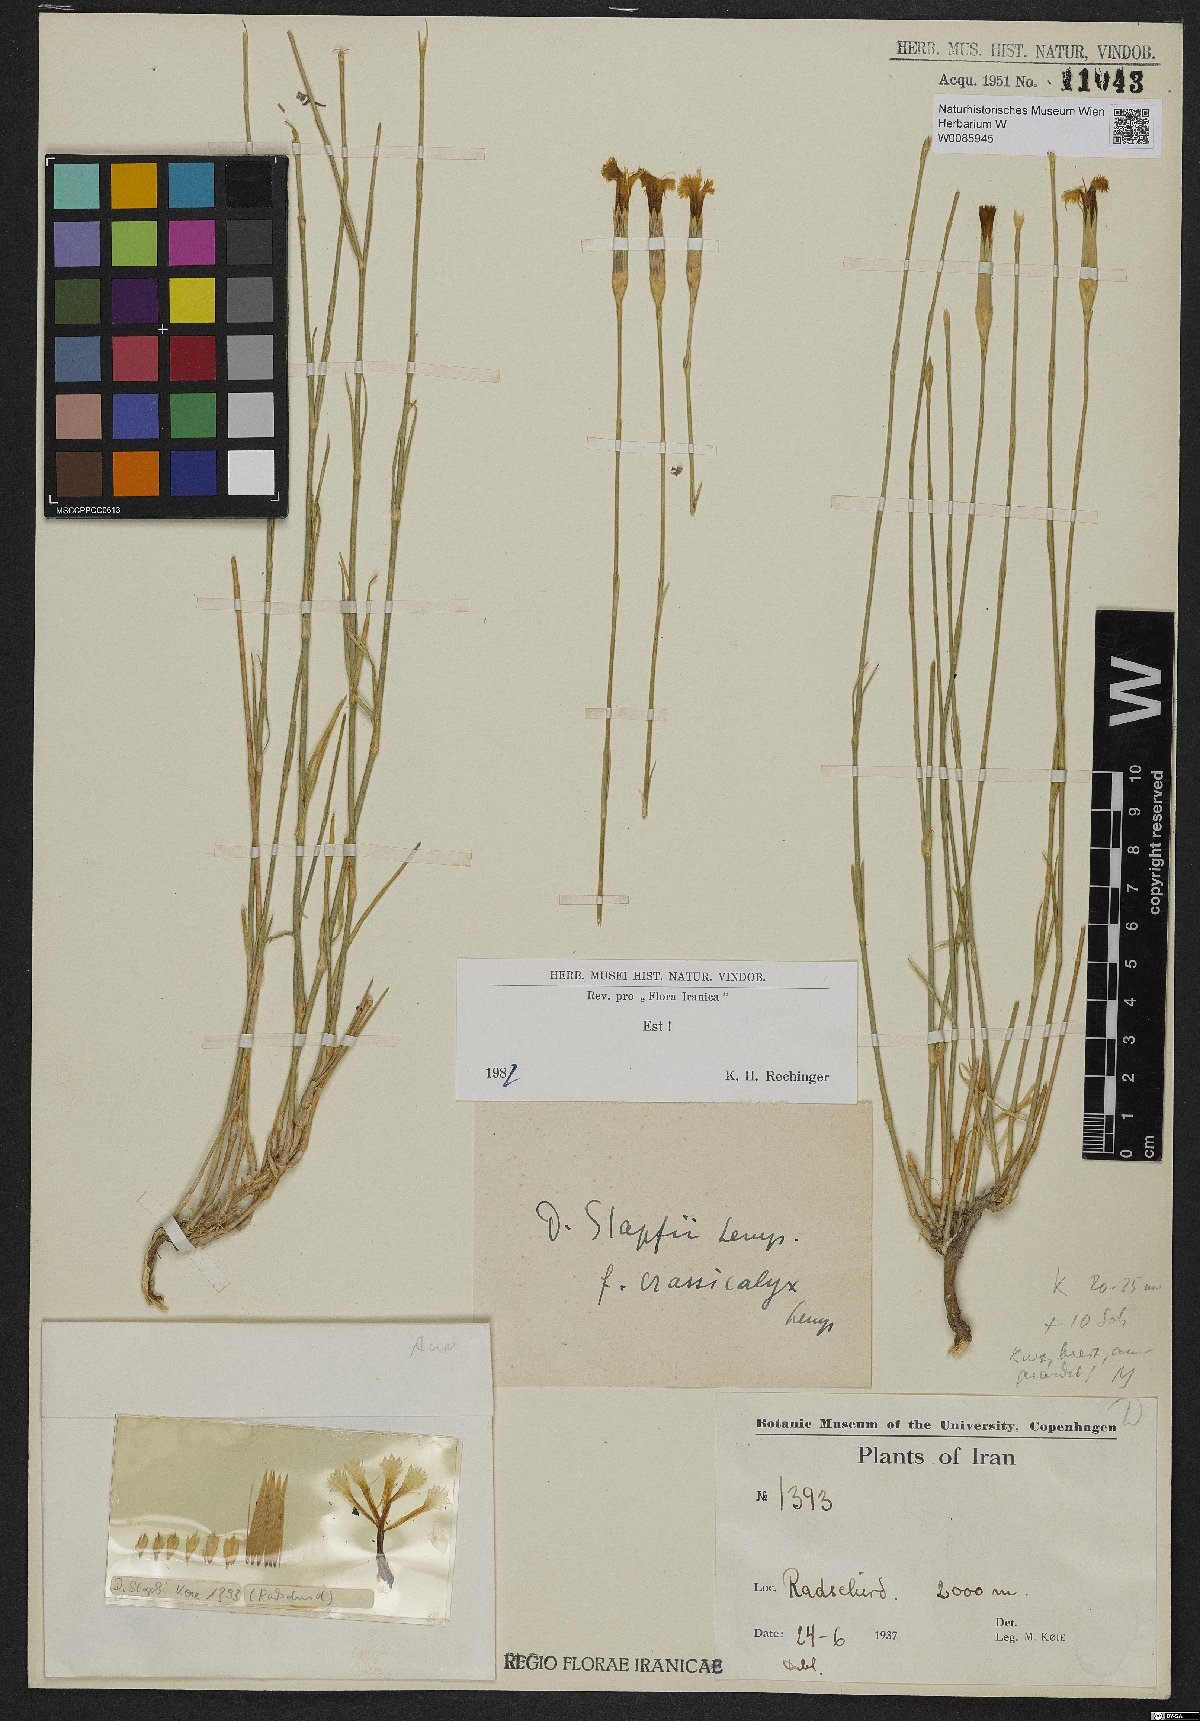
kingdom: Plantae
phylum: Tracheophyta
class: Magnoliopsida
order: Caryophyllales
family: Caryophyllaceae
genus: Dianthus
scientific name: Dianthus stapfii
